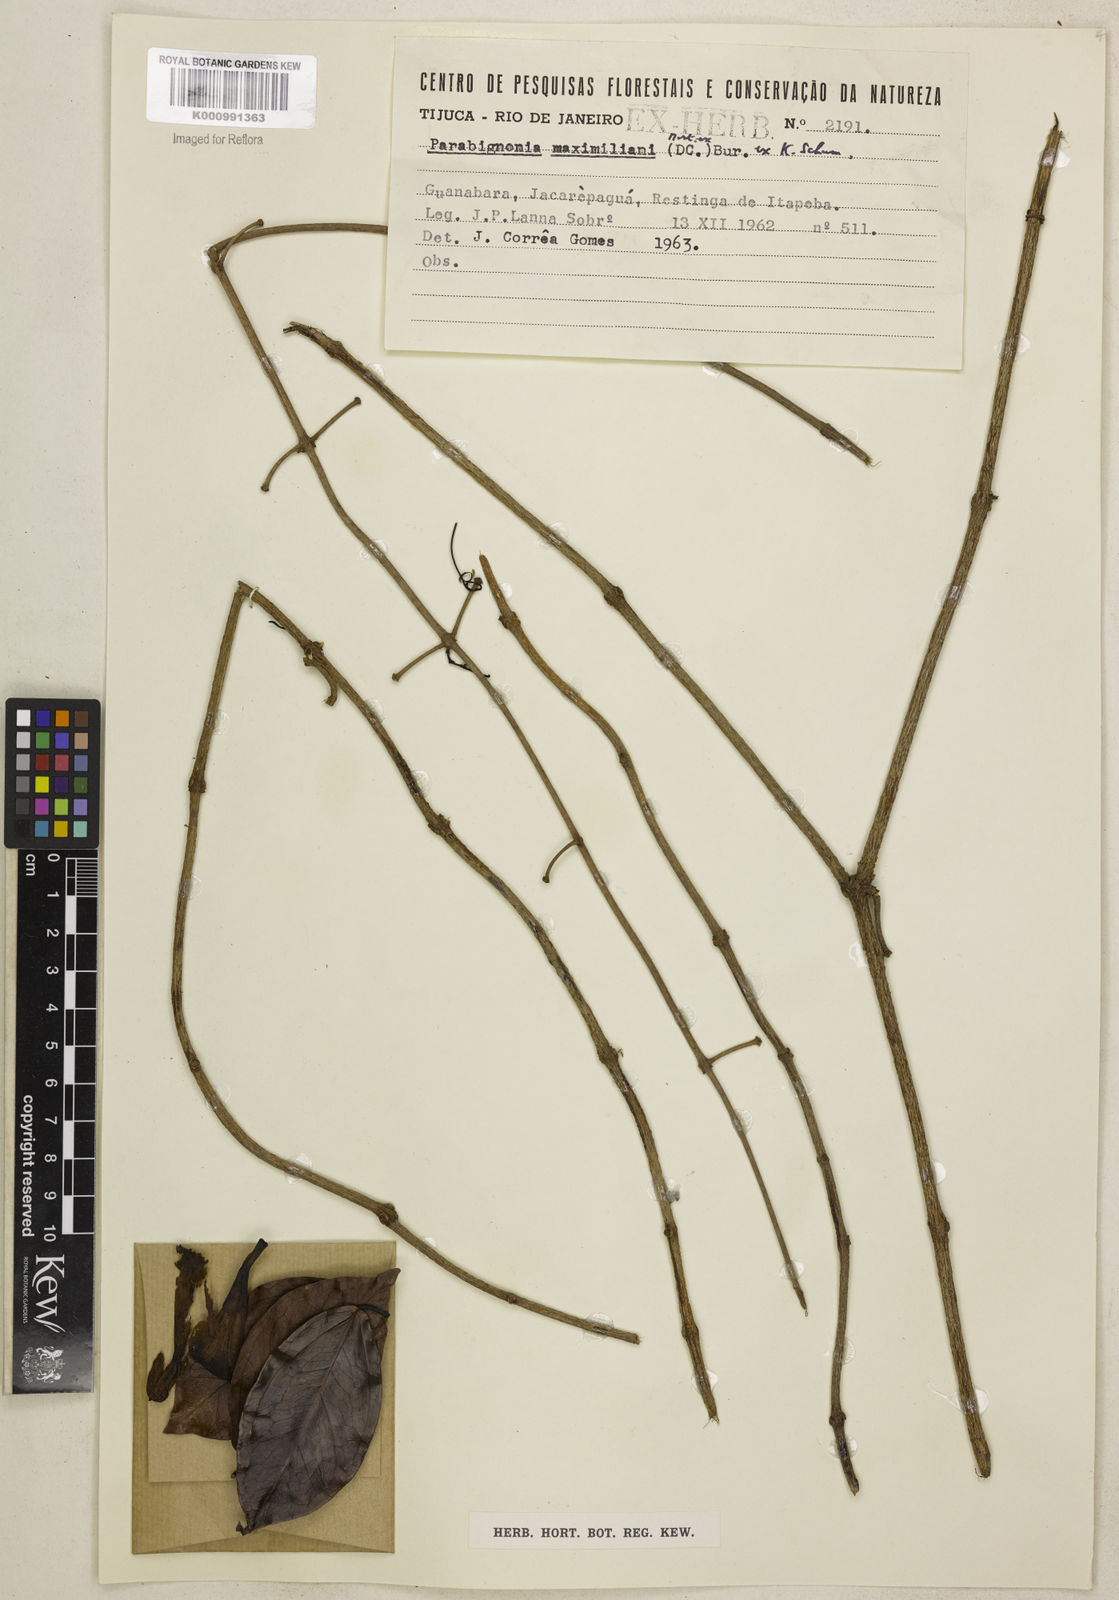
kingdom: Plantae
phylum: Tracheophyta
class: Magnoliopsida
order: Lamiales
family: Bignoniaceae
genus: Adenocalymma
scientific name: Adenocalymma
